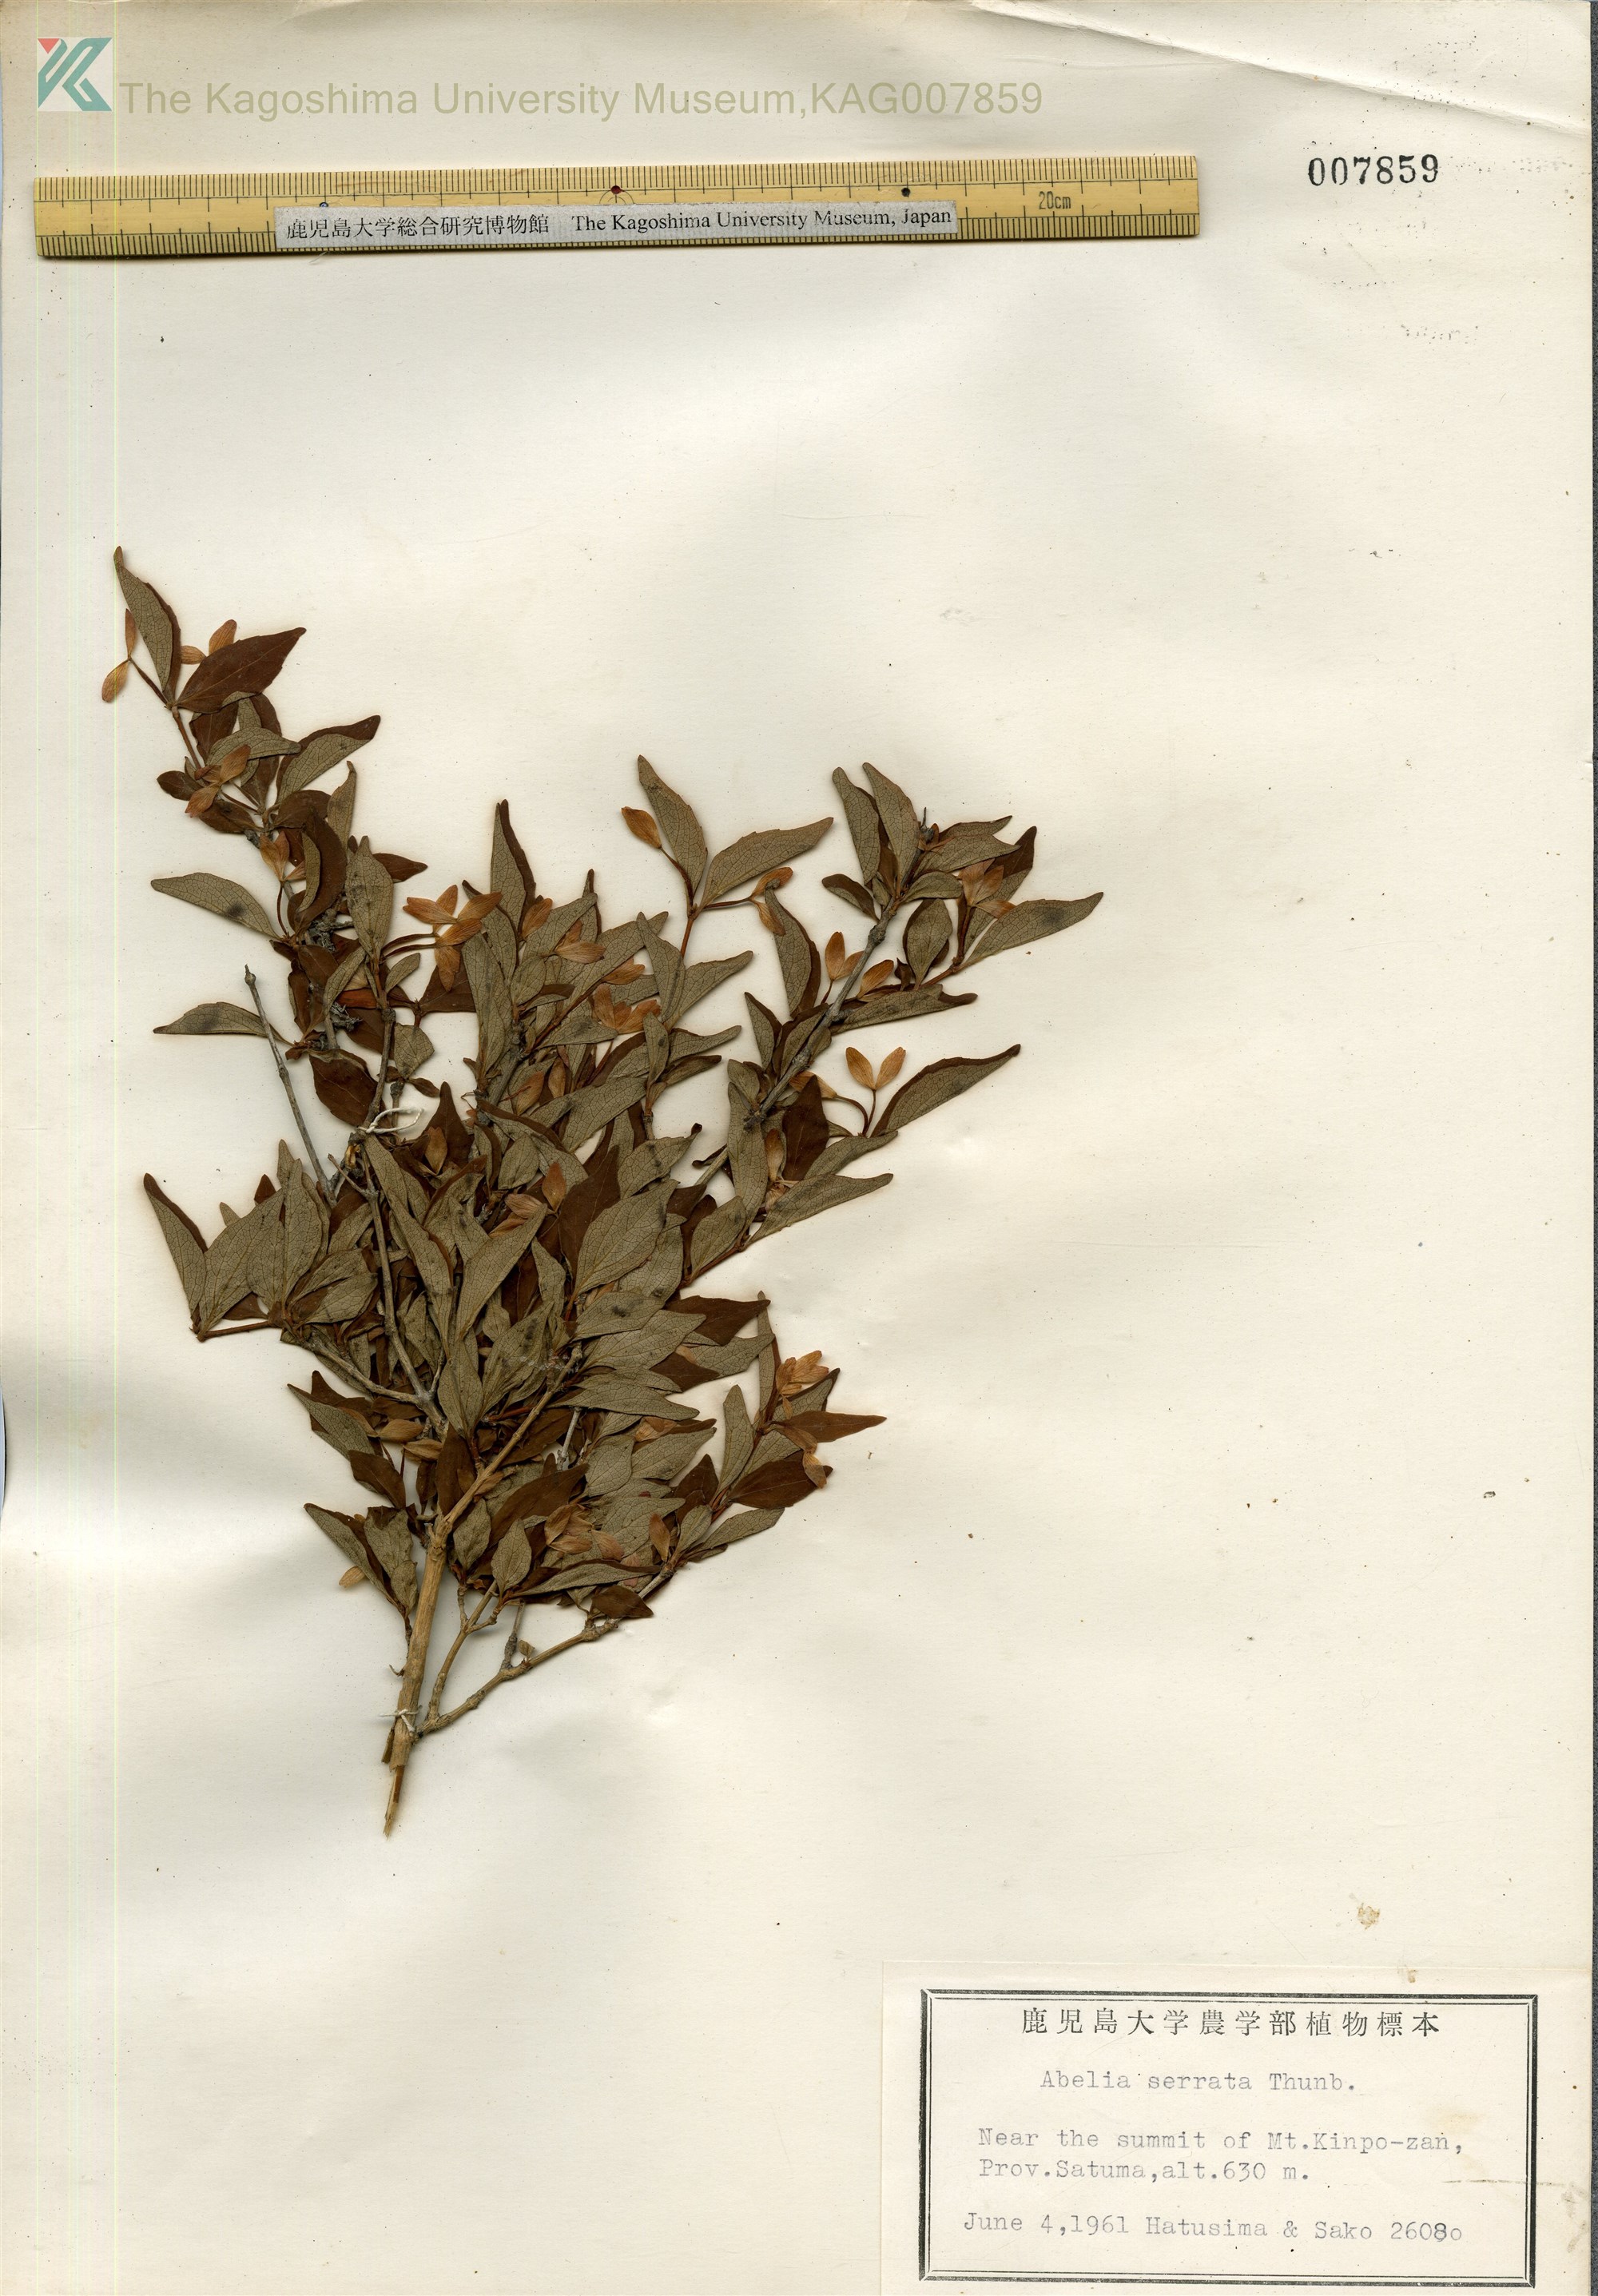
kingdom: Plantae
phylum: Tracheophyta
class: Magnoliopsida
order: Dipsacales
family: Caprifoliaceae
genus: Diabelia
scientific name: Diabelia serrata
